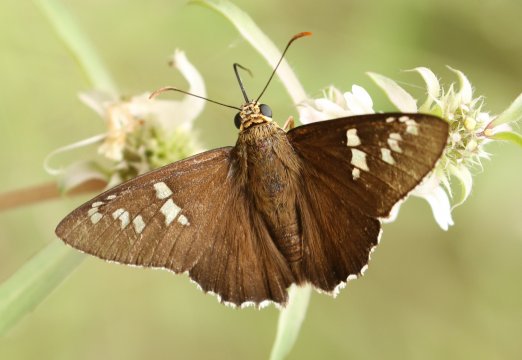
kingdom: Animalia
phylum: Arthropoda
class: Insecta
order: Lepidoptera
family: Hesperiidae
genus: Pyrrhopyge
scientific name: Pyrrhopyge araxes
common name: Dull Firetip
